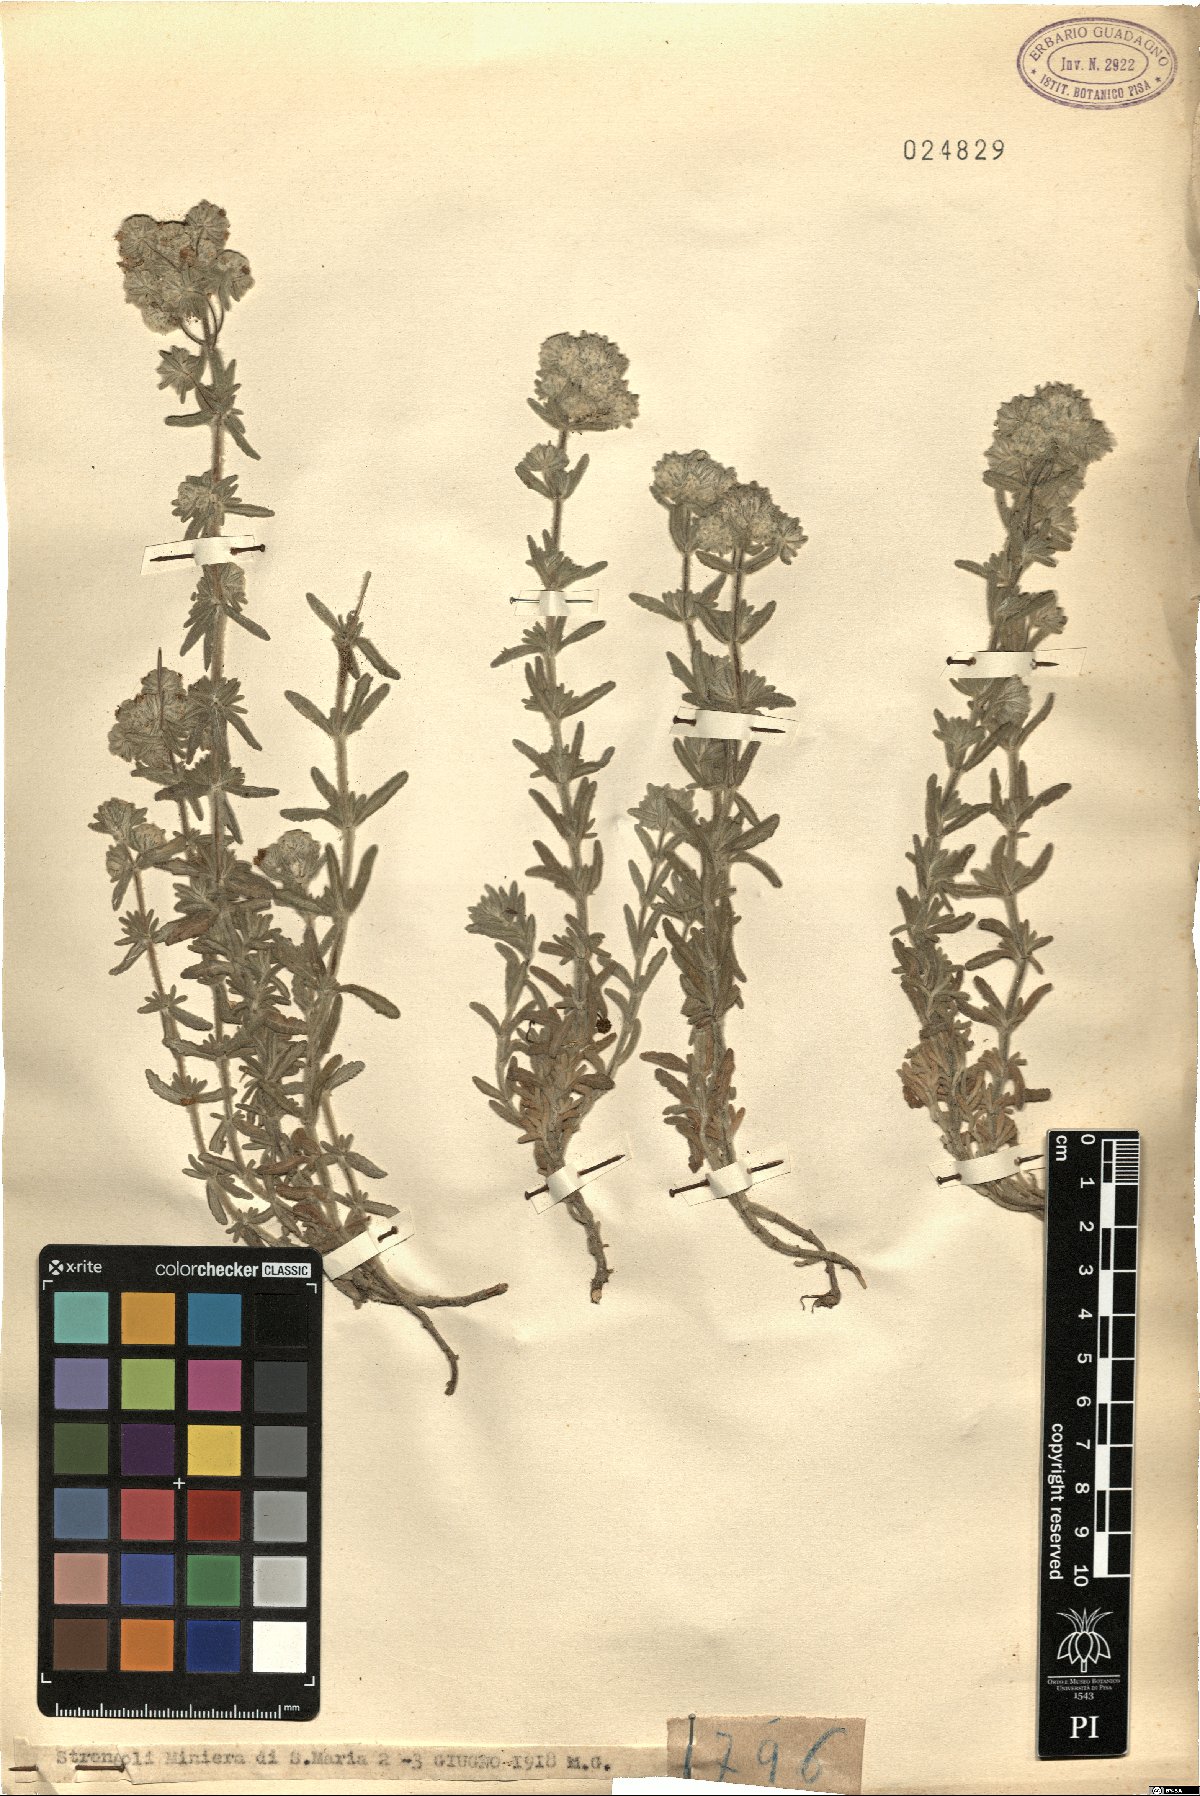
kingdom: Plantae
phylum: Tracheophyta
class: Magnoliopsida
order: Lamiales
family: Lamiaceae
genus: Teucrium
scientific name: Teucrium
